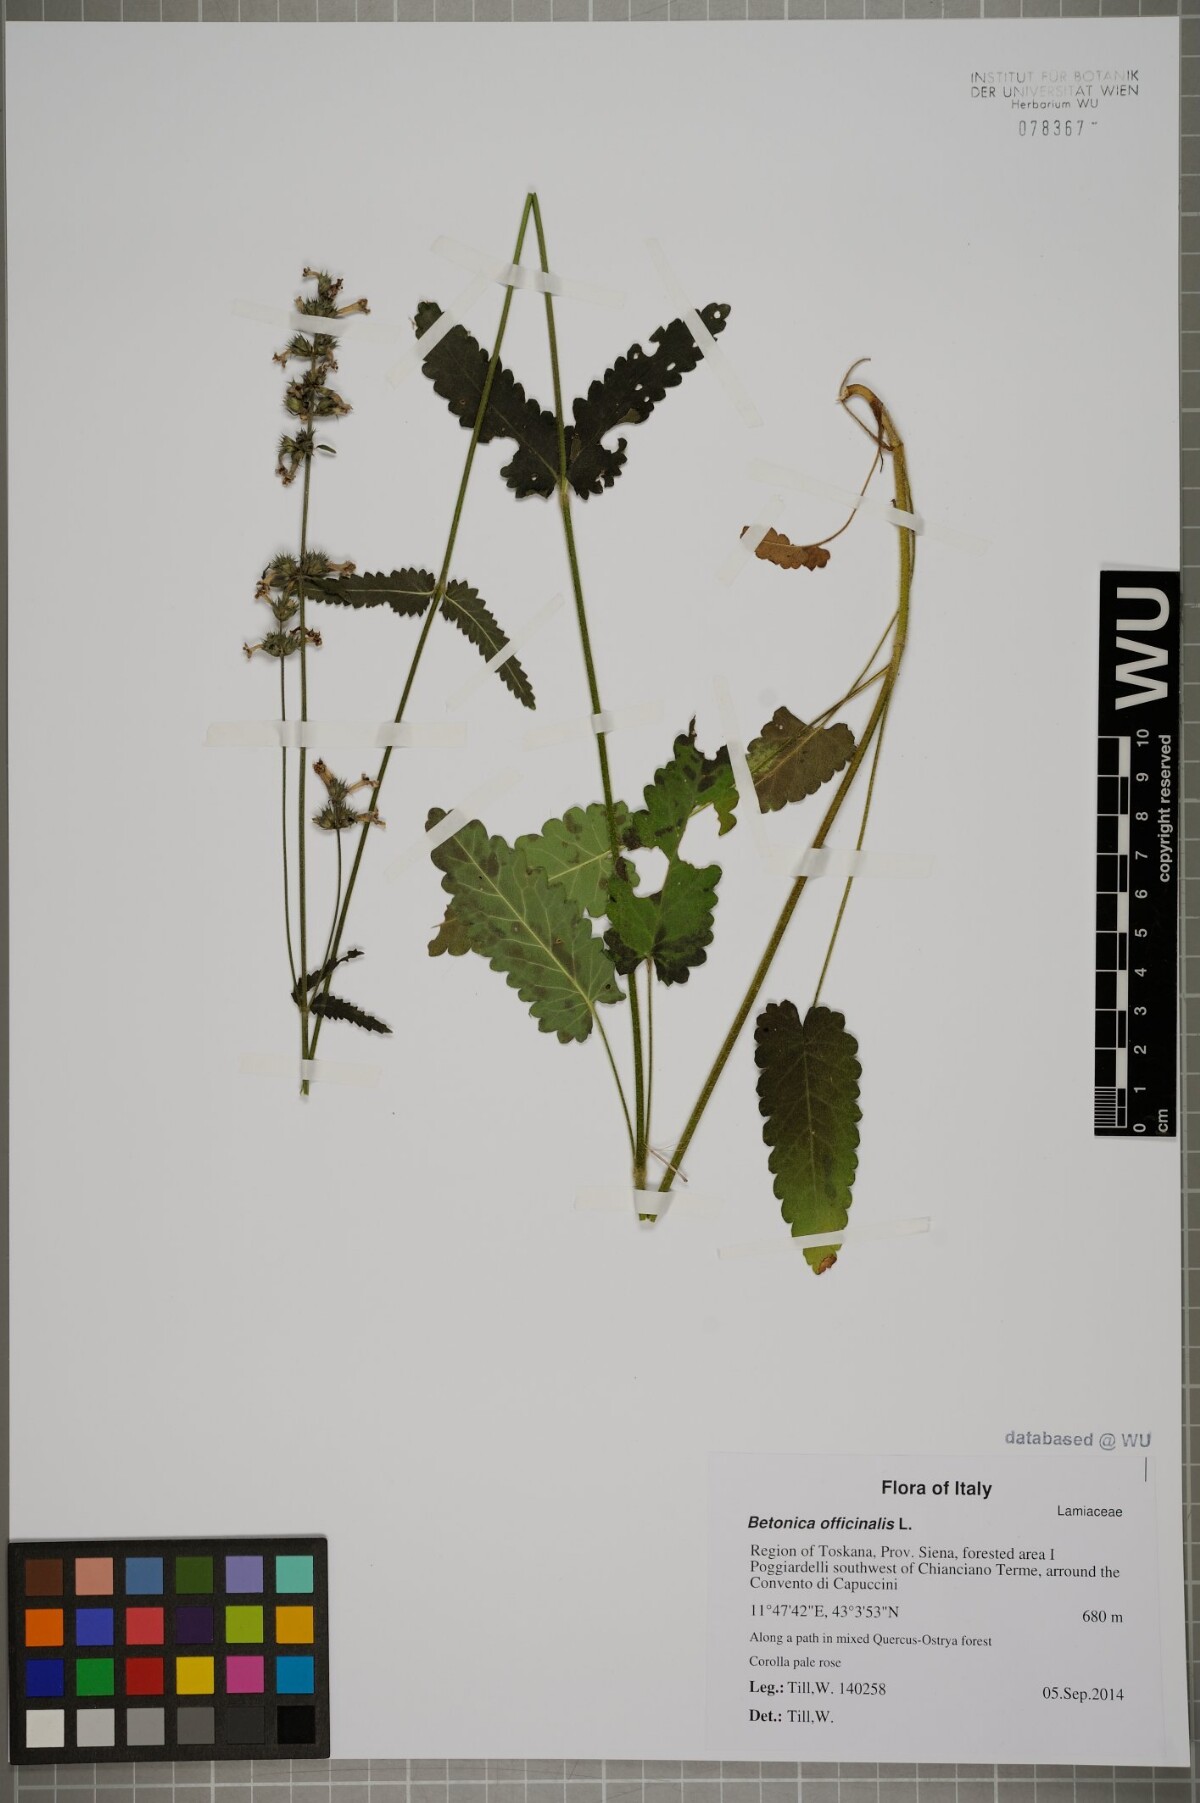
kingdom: Plantae
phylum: Tracheophyta
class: Magnoliopsida
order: Lamiales
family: Lamiaceae
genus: Betonica
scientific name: Betonica officinalis
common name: Bishop's-wort
